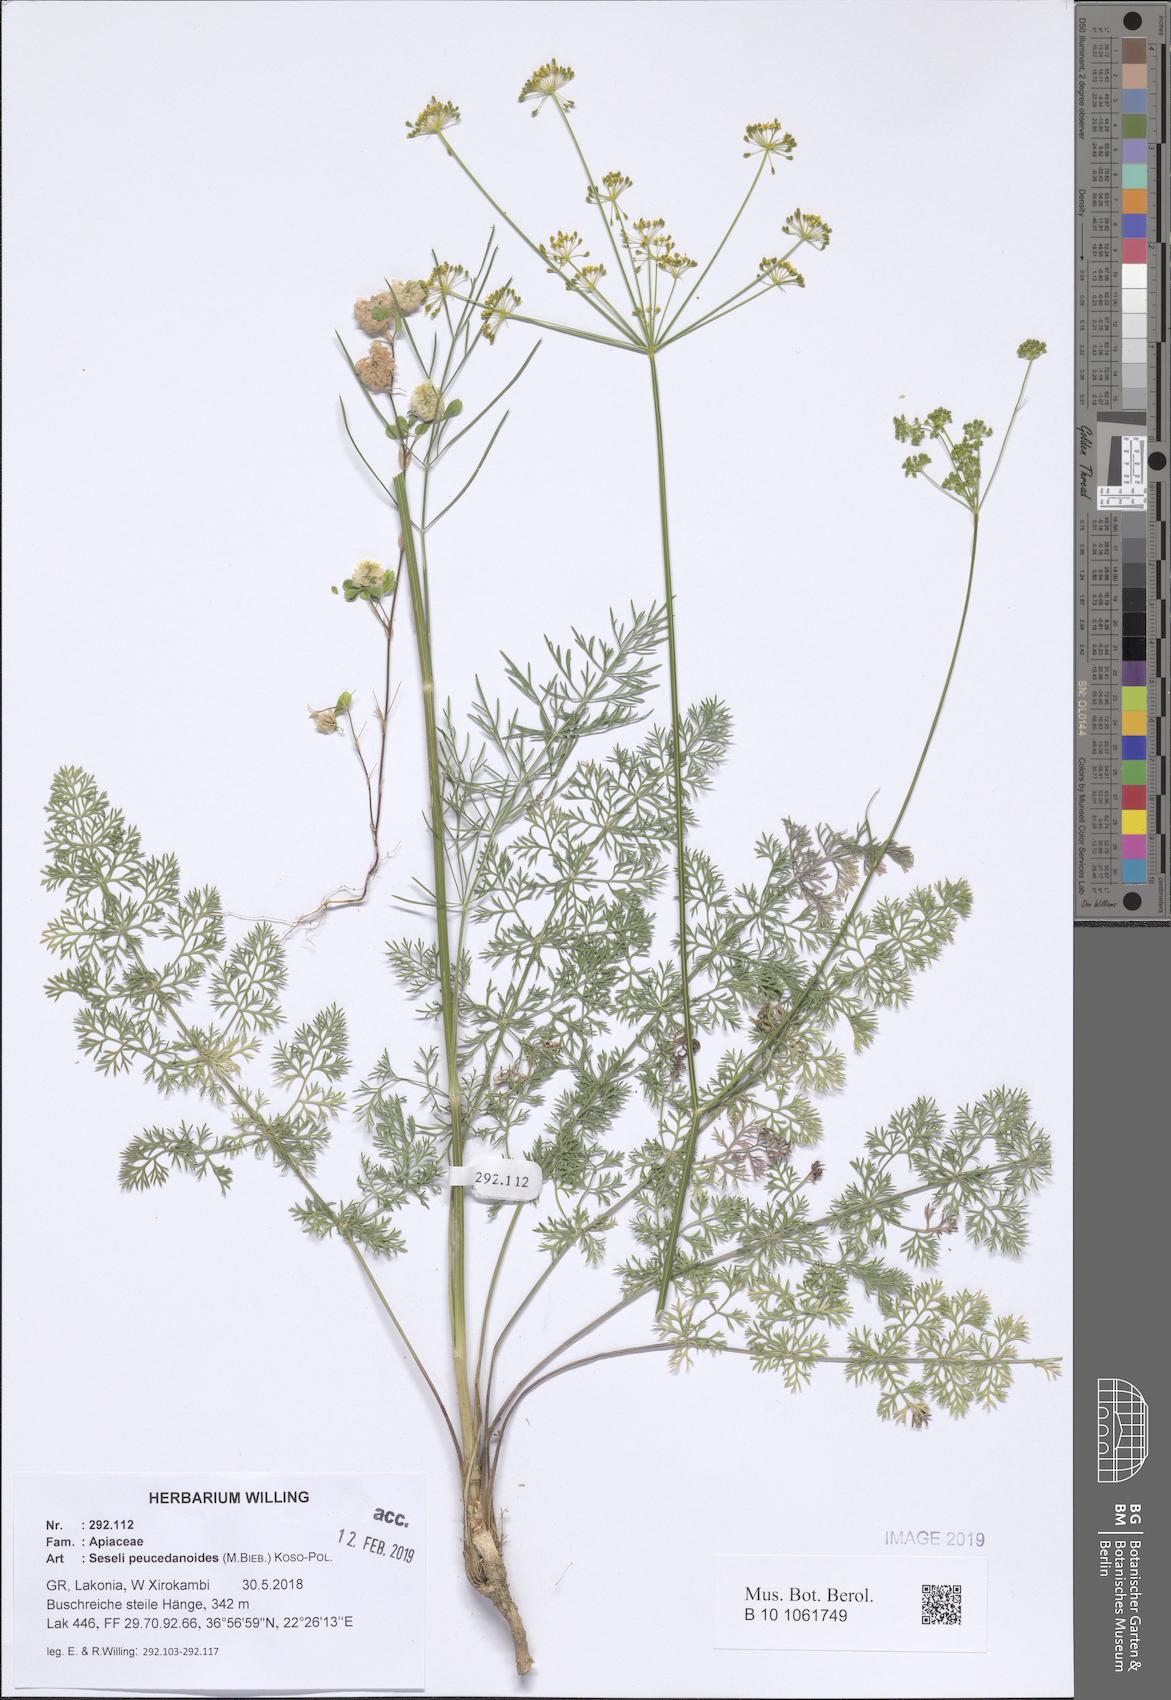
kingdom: Plantae
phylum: Tracheophyta
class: Magnoliopsida
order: Apiales
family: Apiaceae
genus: Gasparinia
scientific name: Gasparinia peucedanoides
